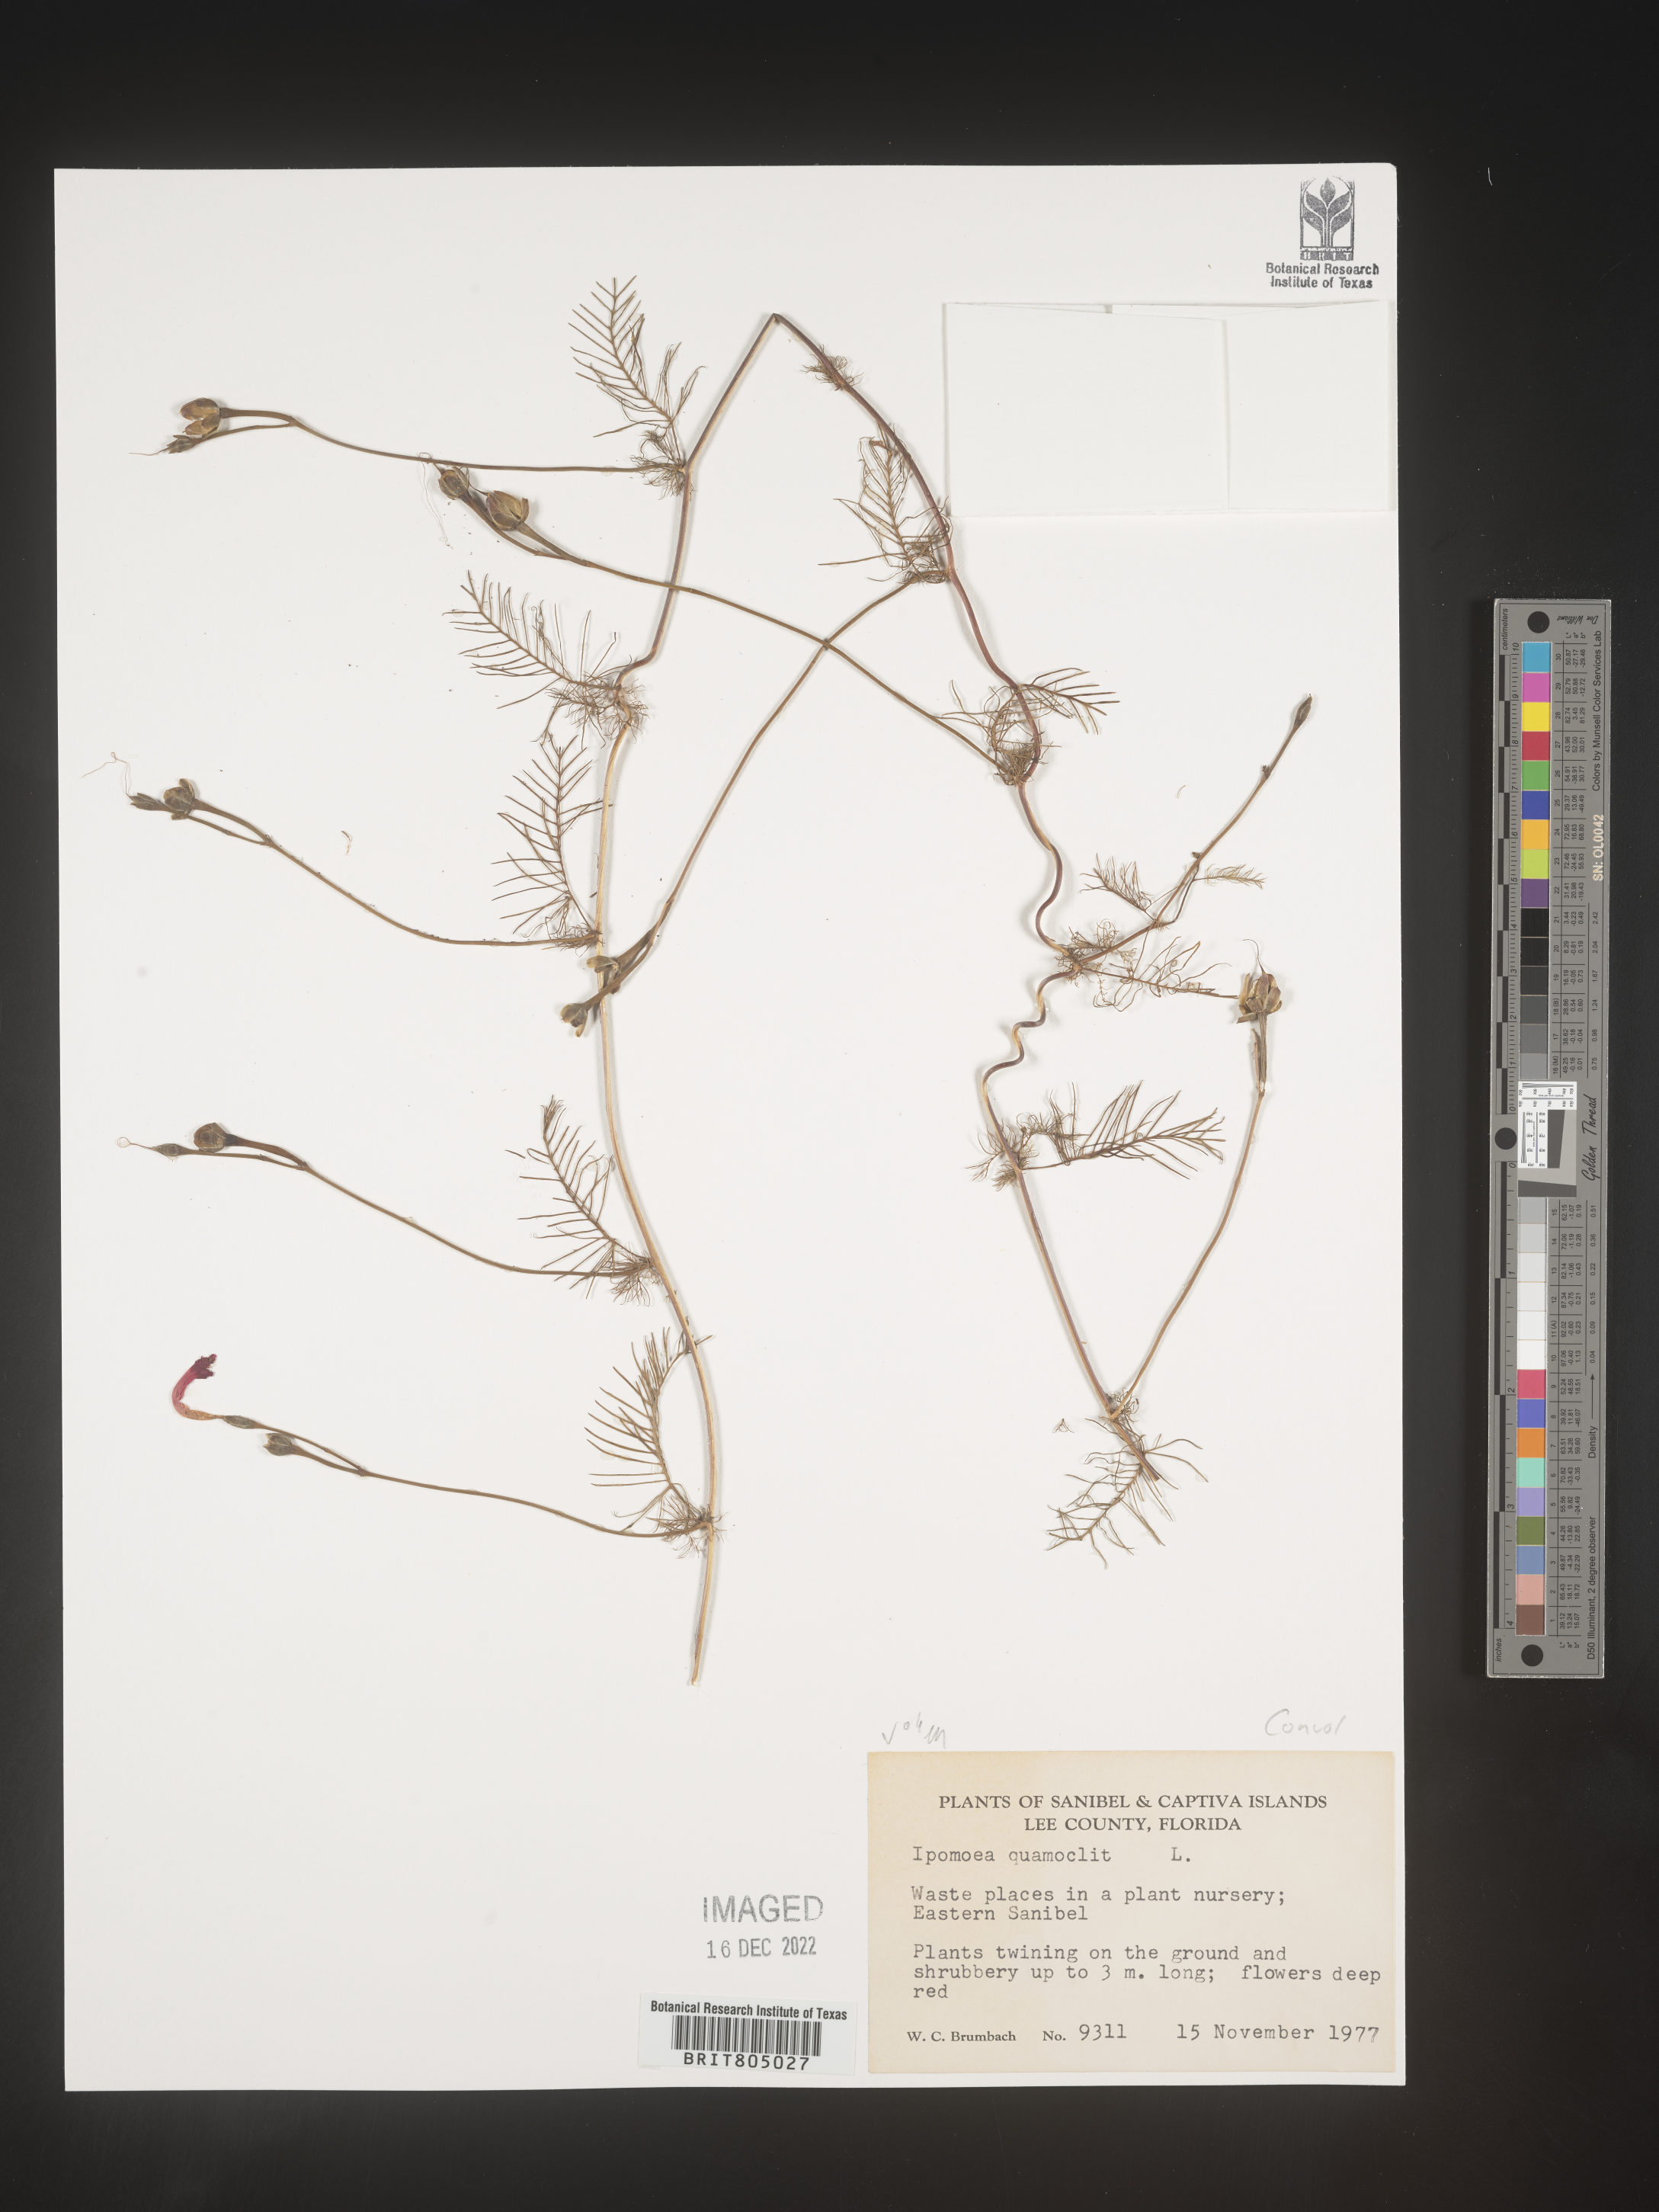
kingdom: Plantae
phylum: Tracheophyta
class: Magnoliopsida
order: Solanales
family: Convolvulaceae
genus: Ipomoea
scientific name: Ipomoea quamoclit
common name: Cypress vine
